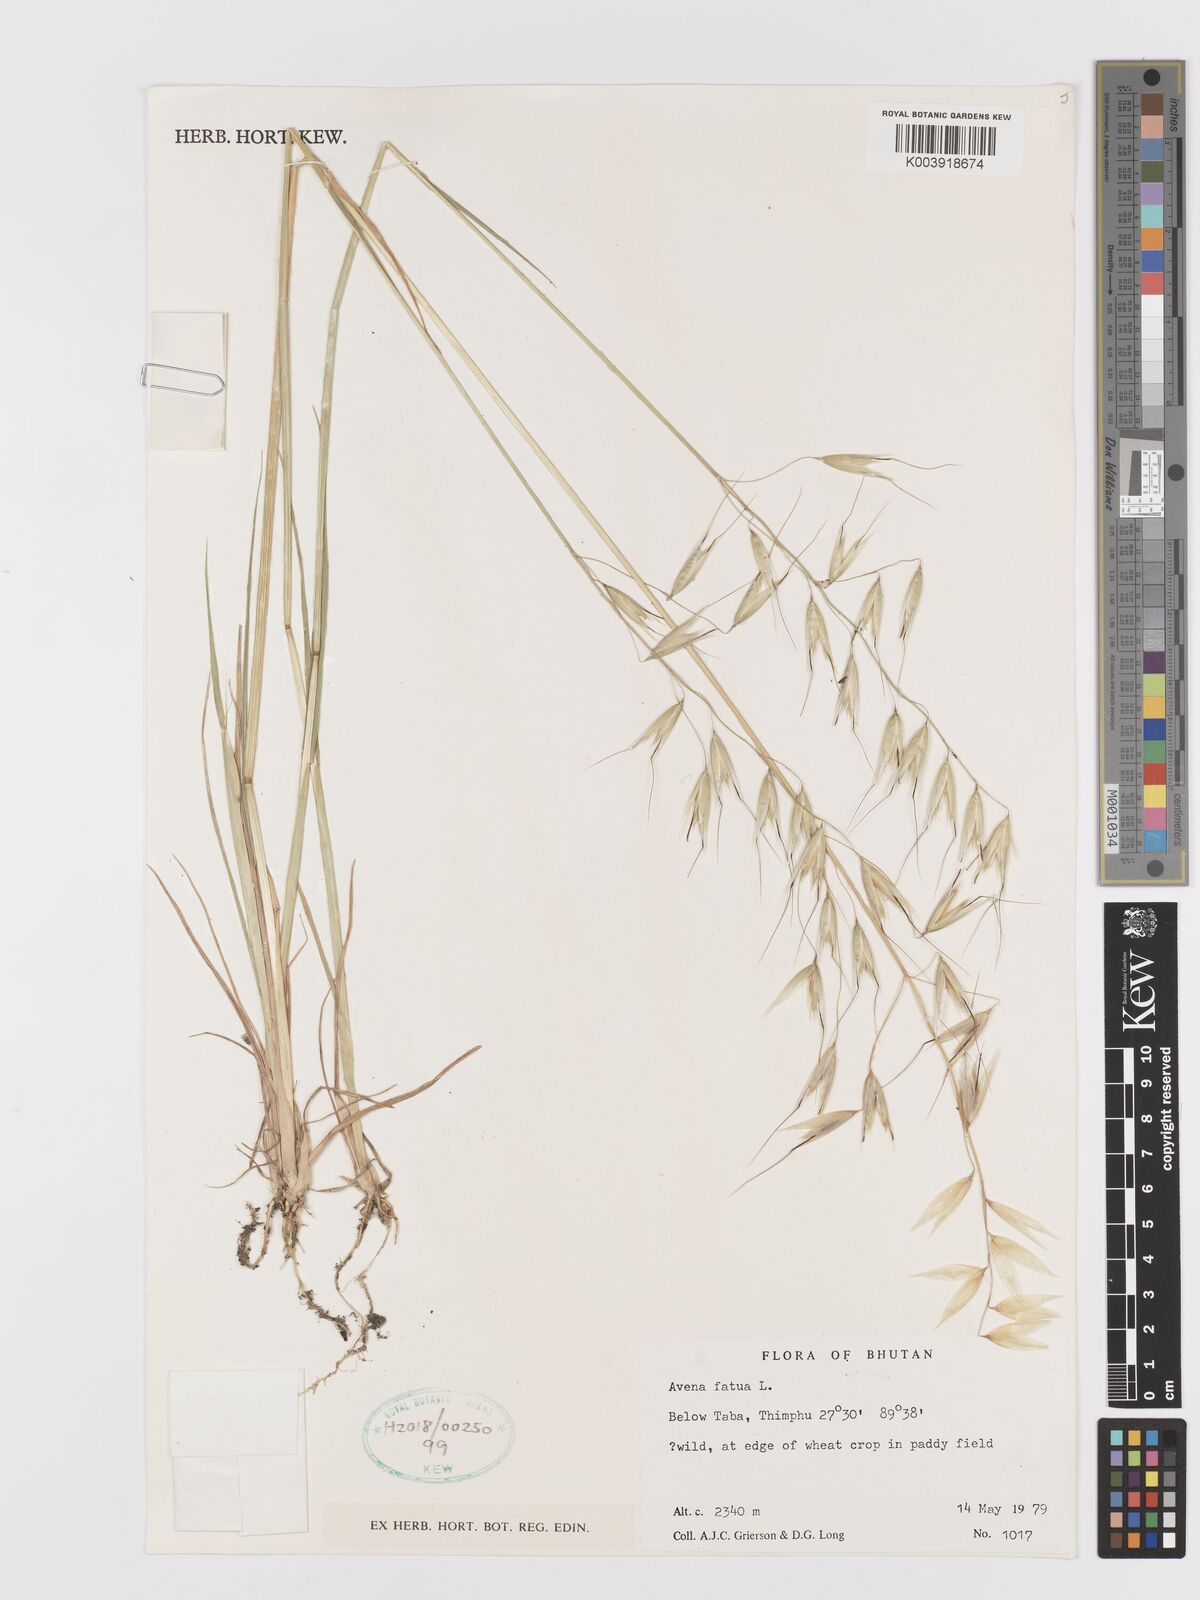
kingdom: Plantae
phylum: Tracheophyta
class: Liliopsida
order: Poales
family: Poaceae
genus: Avena
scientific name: Avena fatua
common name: Wild oat
